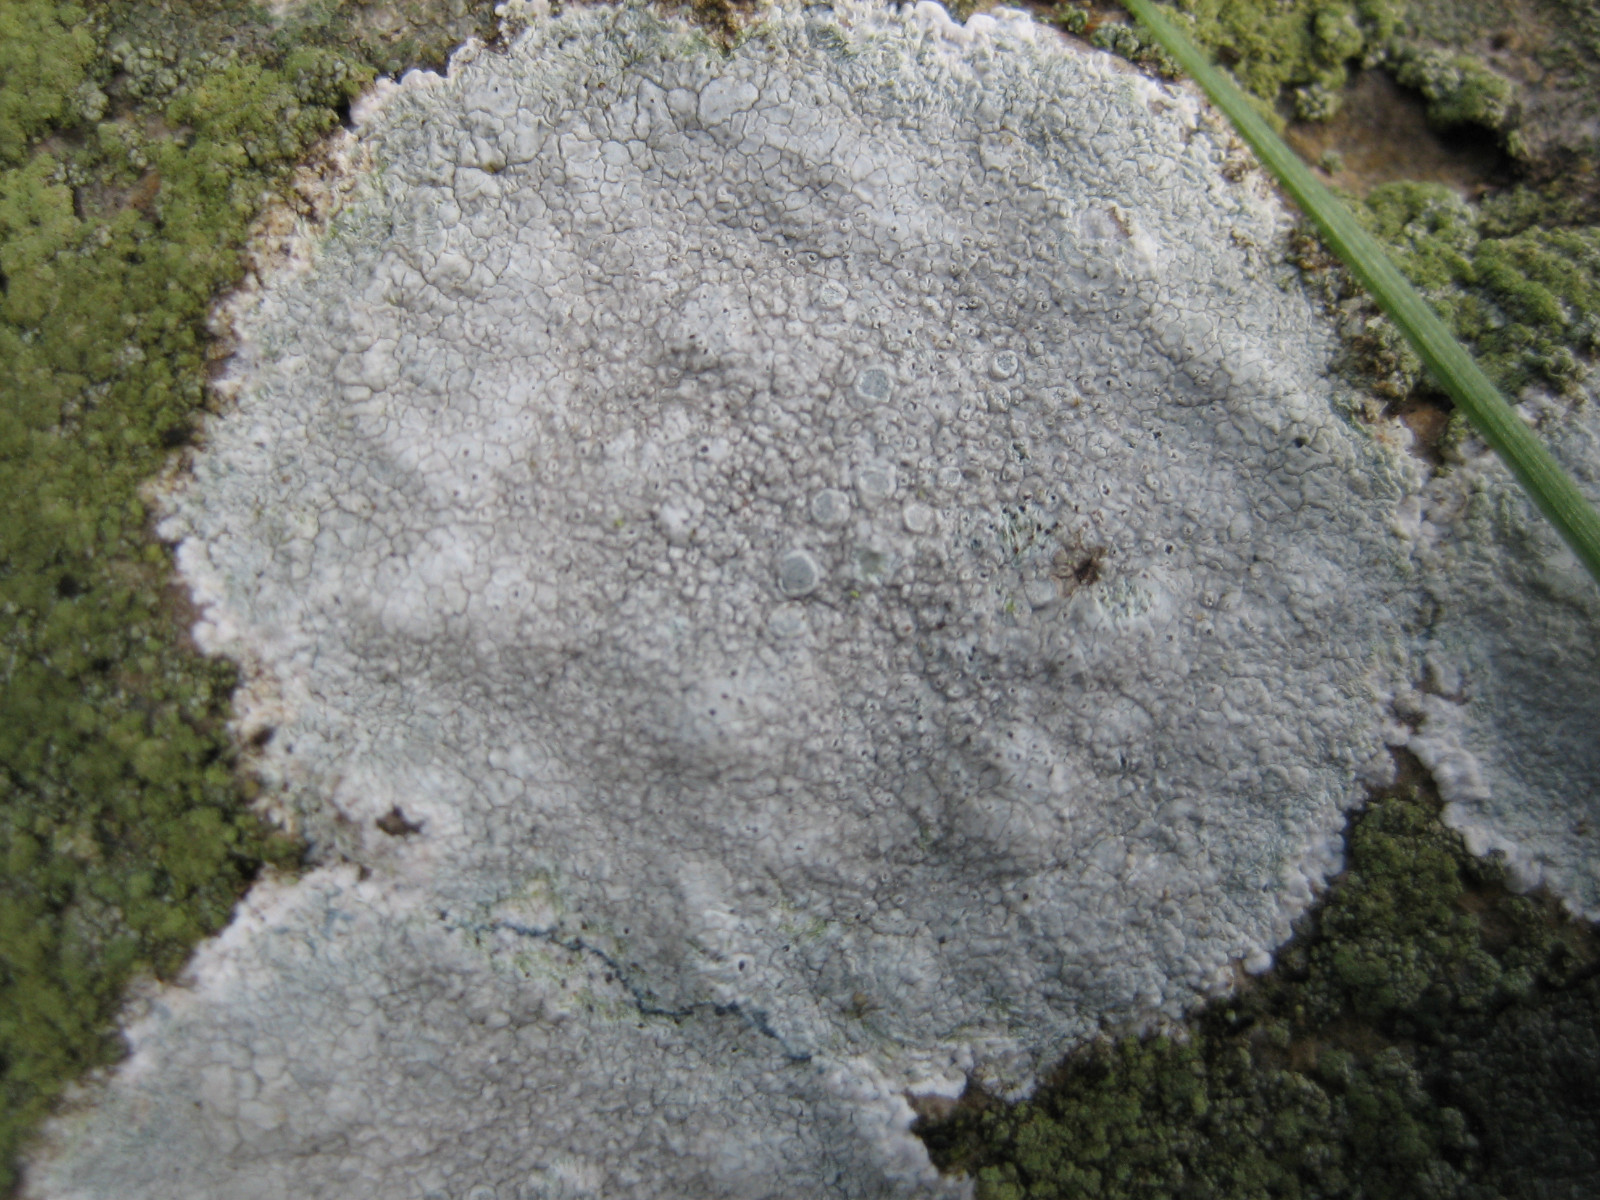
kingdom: Fungi
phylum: Ascomycota
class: Lecanoromycetes
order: Lecanorales
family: Lecanoraceae
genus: Glaucomaria
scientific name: Glaucomaria rupicola
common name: stengærde-kantskivelav
